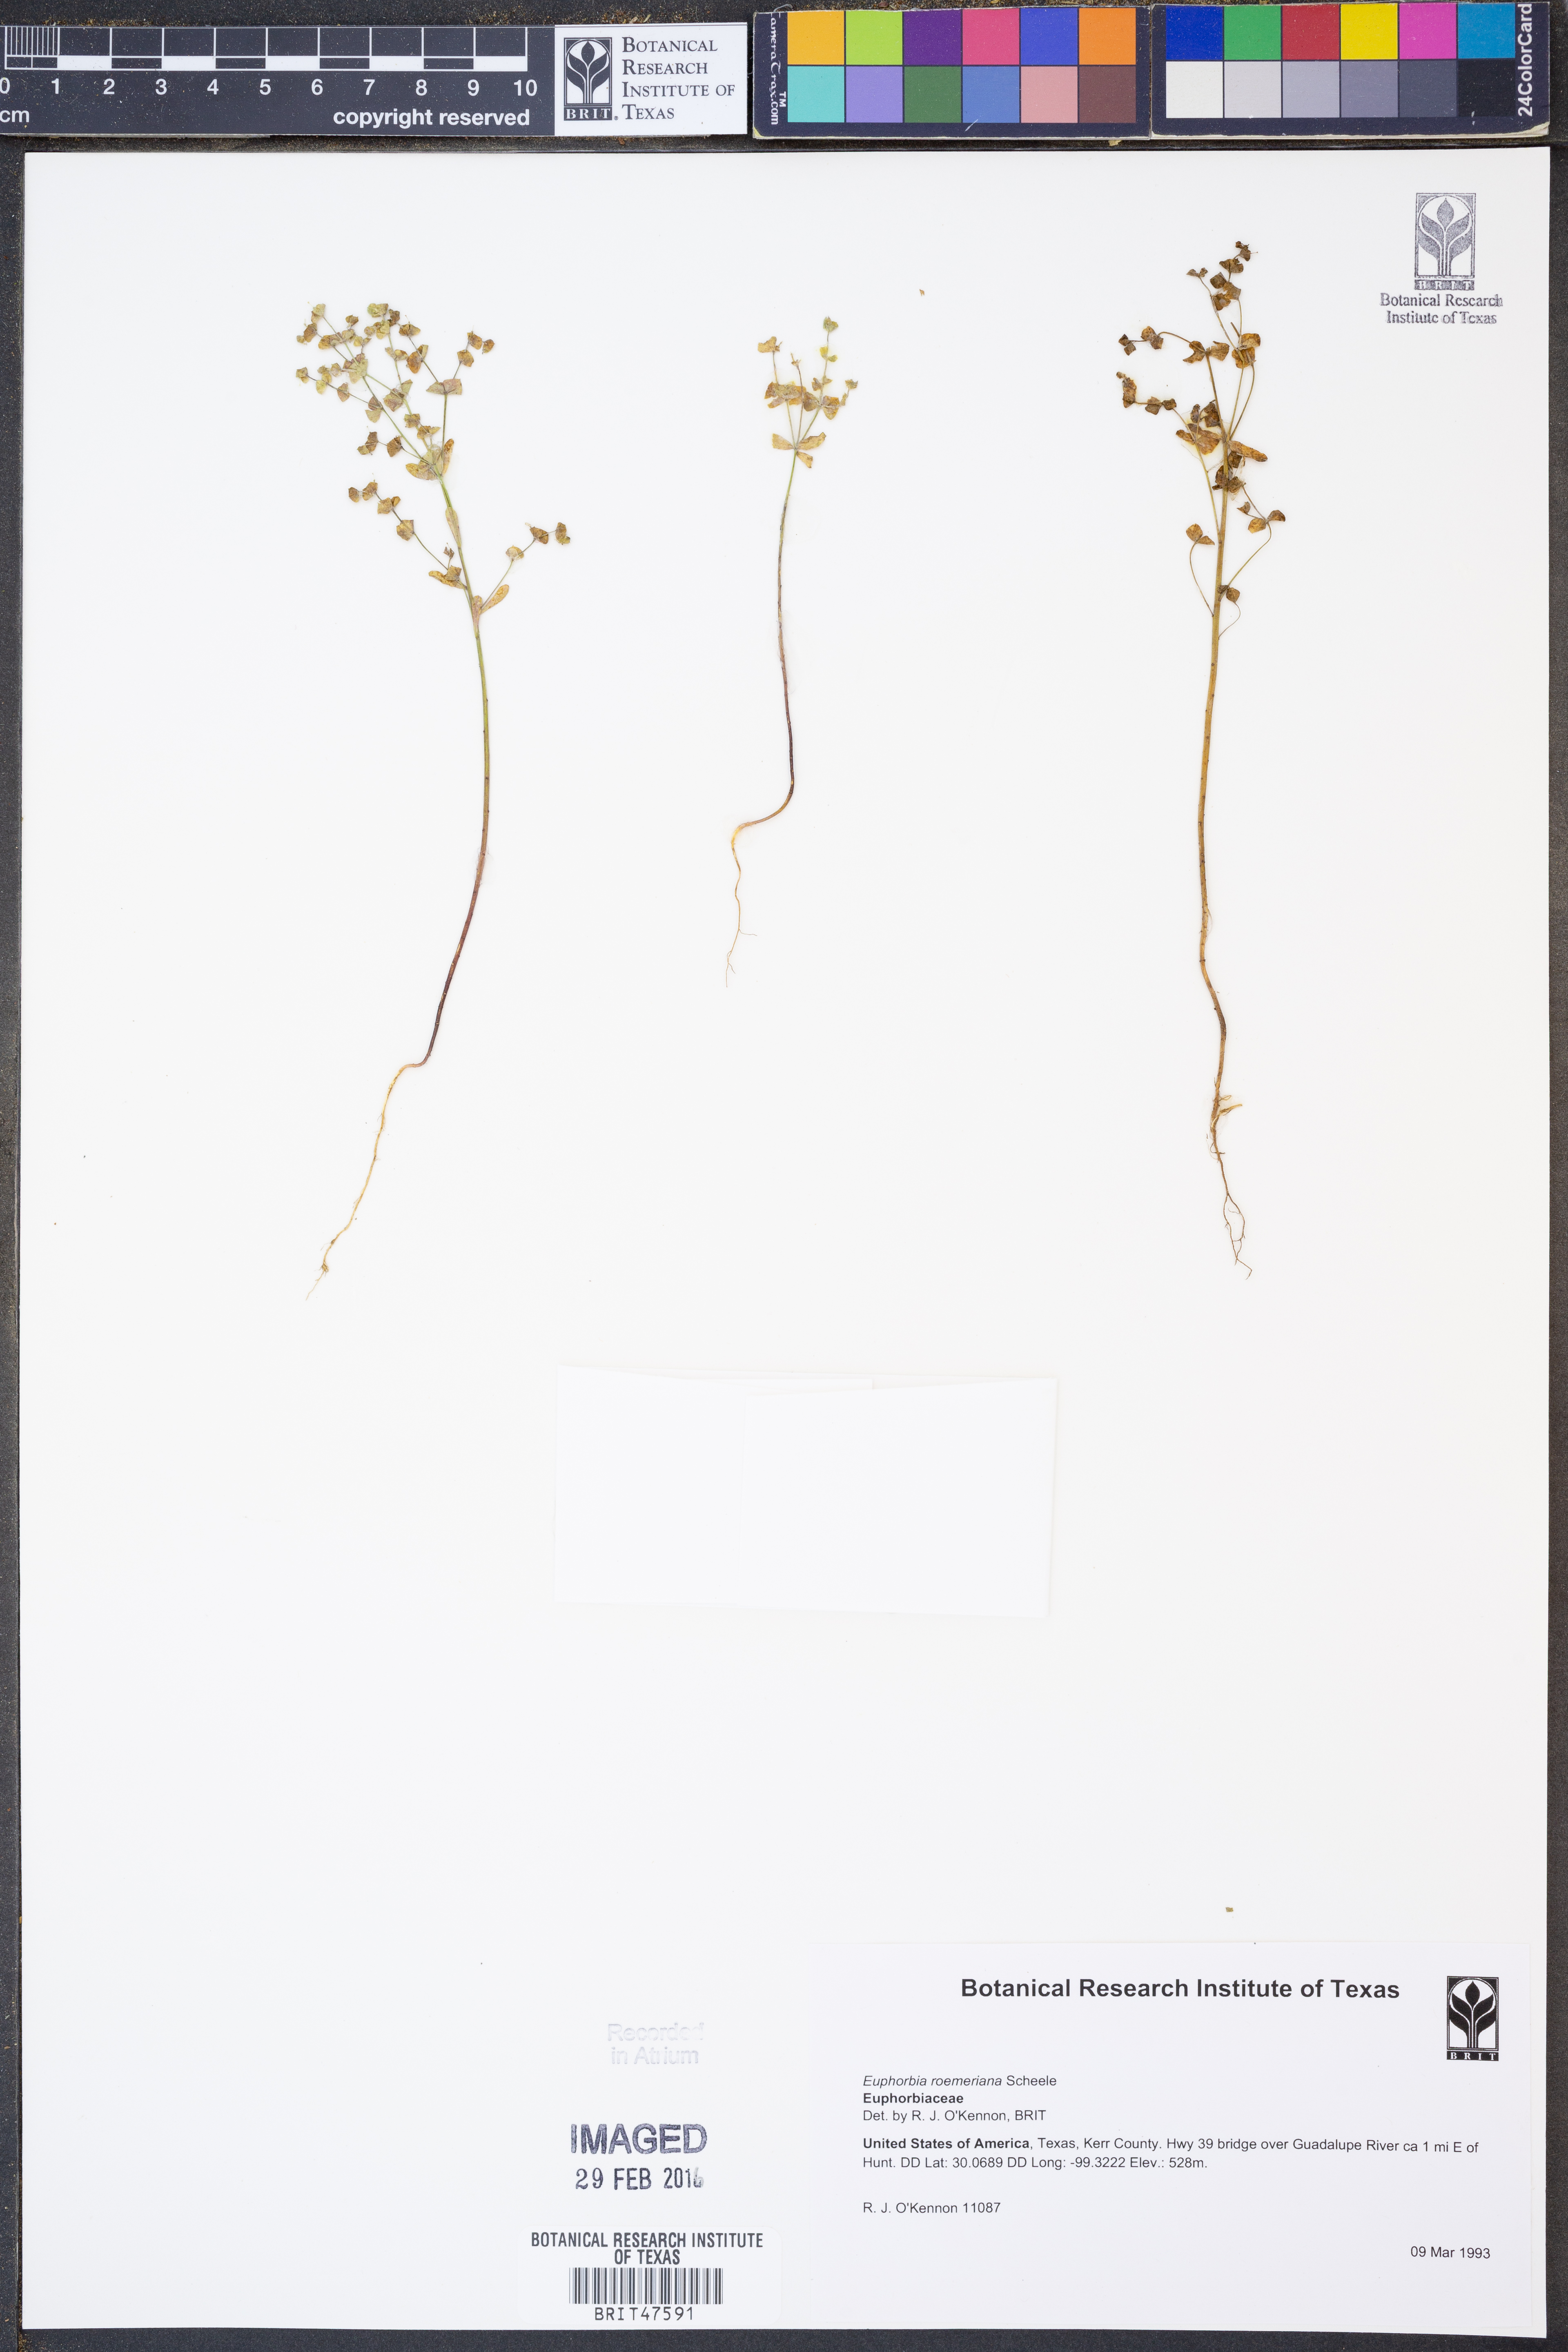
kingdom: Plantae
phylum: Tracheophyta
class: Magnoliopsida
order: Malpighiales
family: Euphorbiaceae
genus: Euphorbia
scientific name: Euphorbia roemeriana
